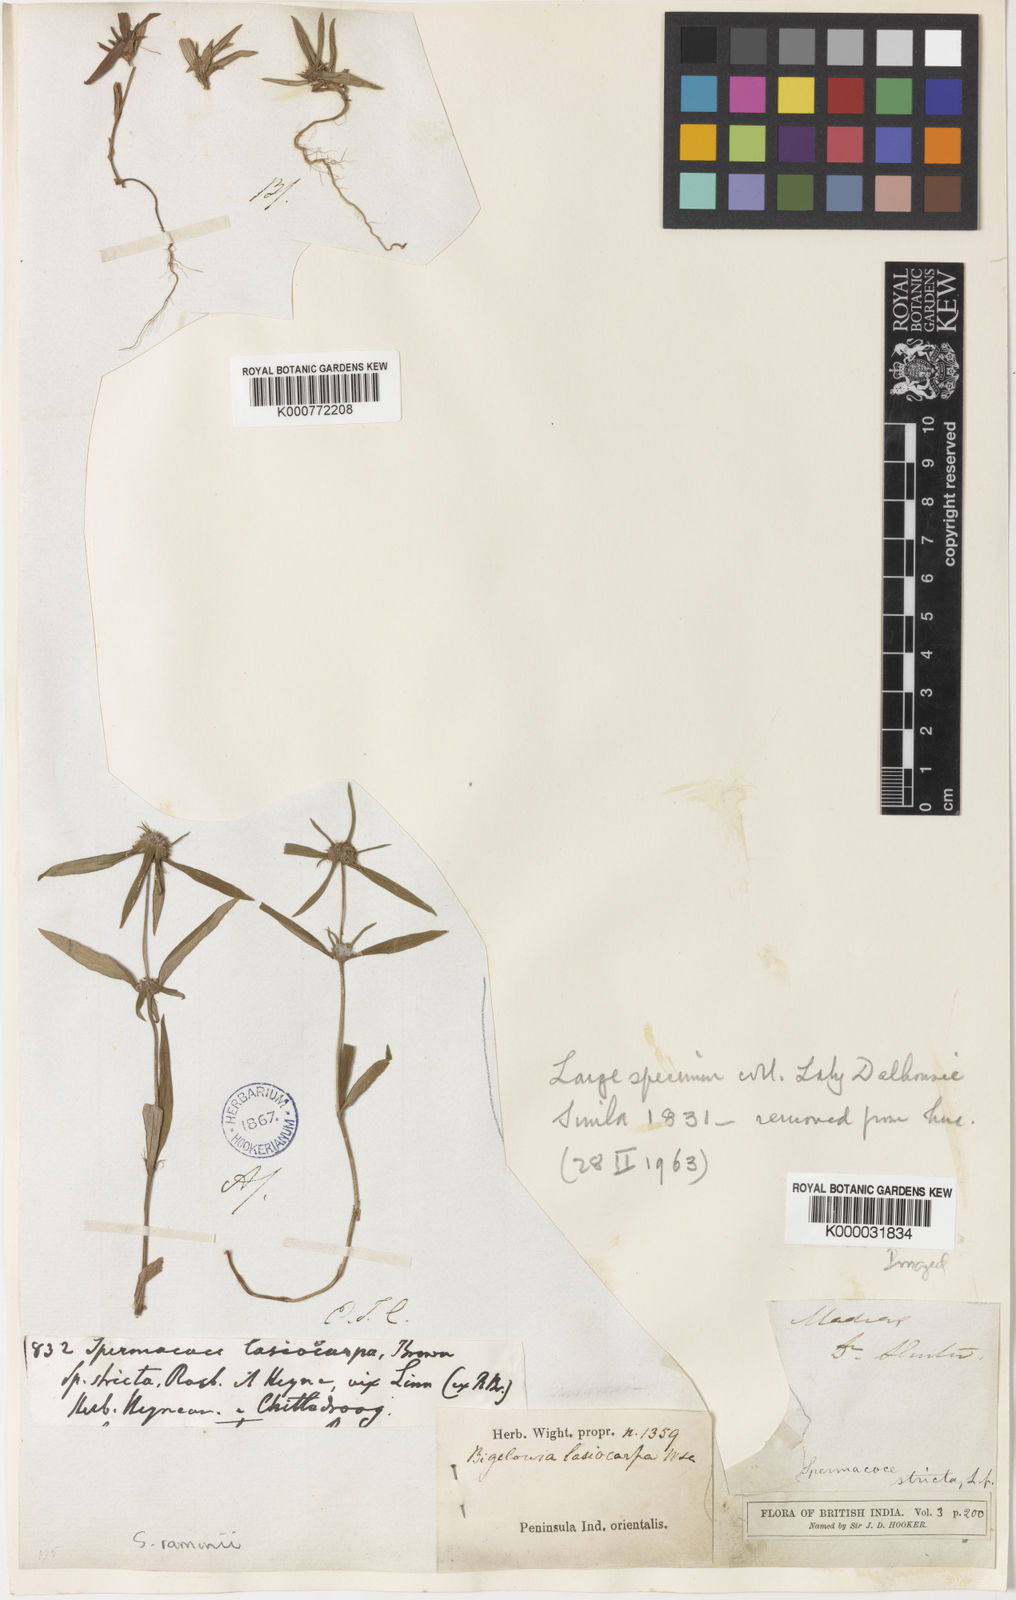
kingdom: Plantae
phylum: Tracheophyta
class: Magnoliopsida
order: Gentianales
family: Rubiaceae
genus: Spermacoce
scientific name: Spermacoce lasiocarpa
